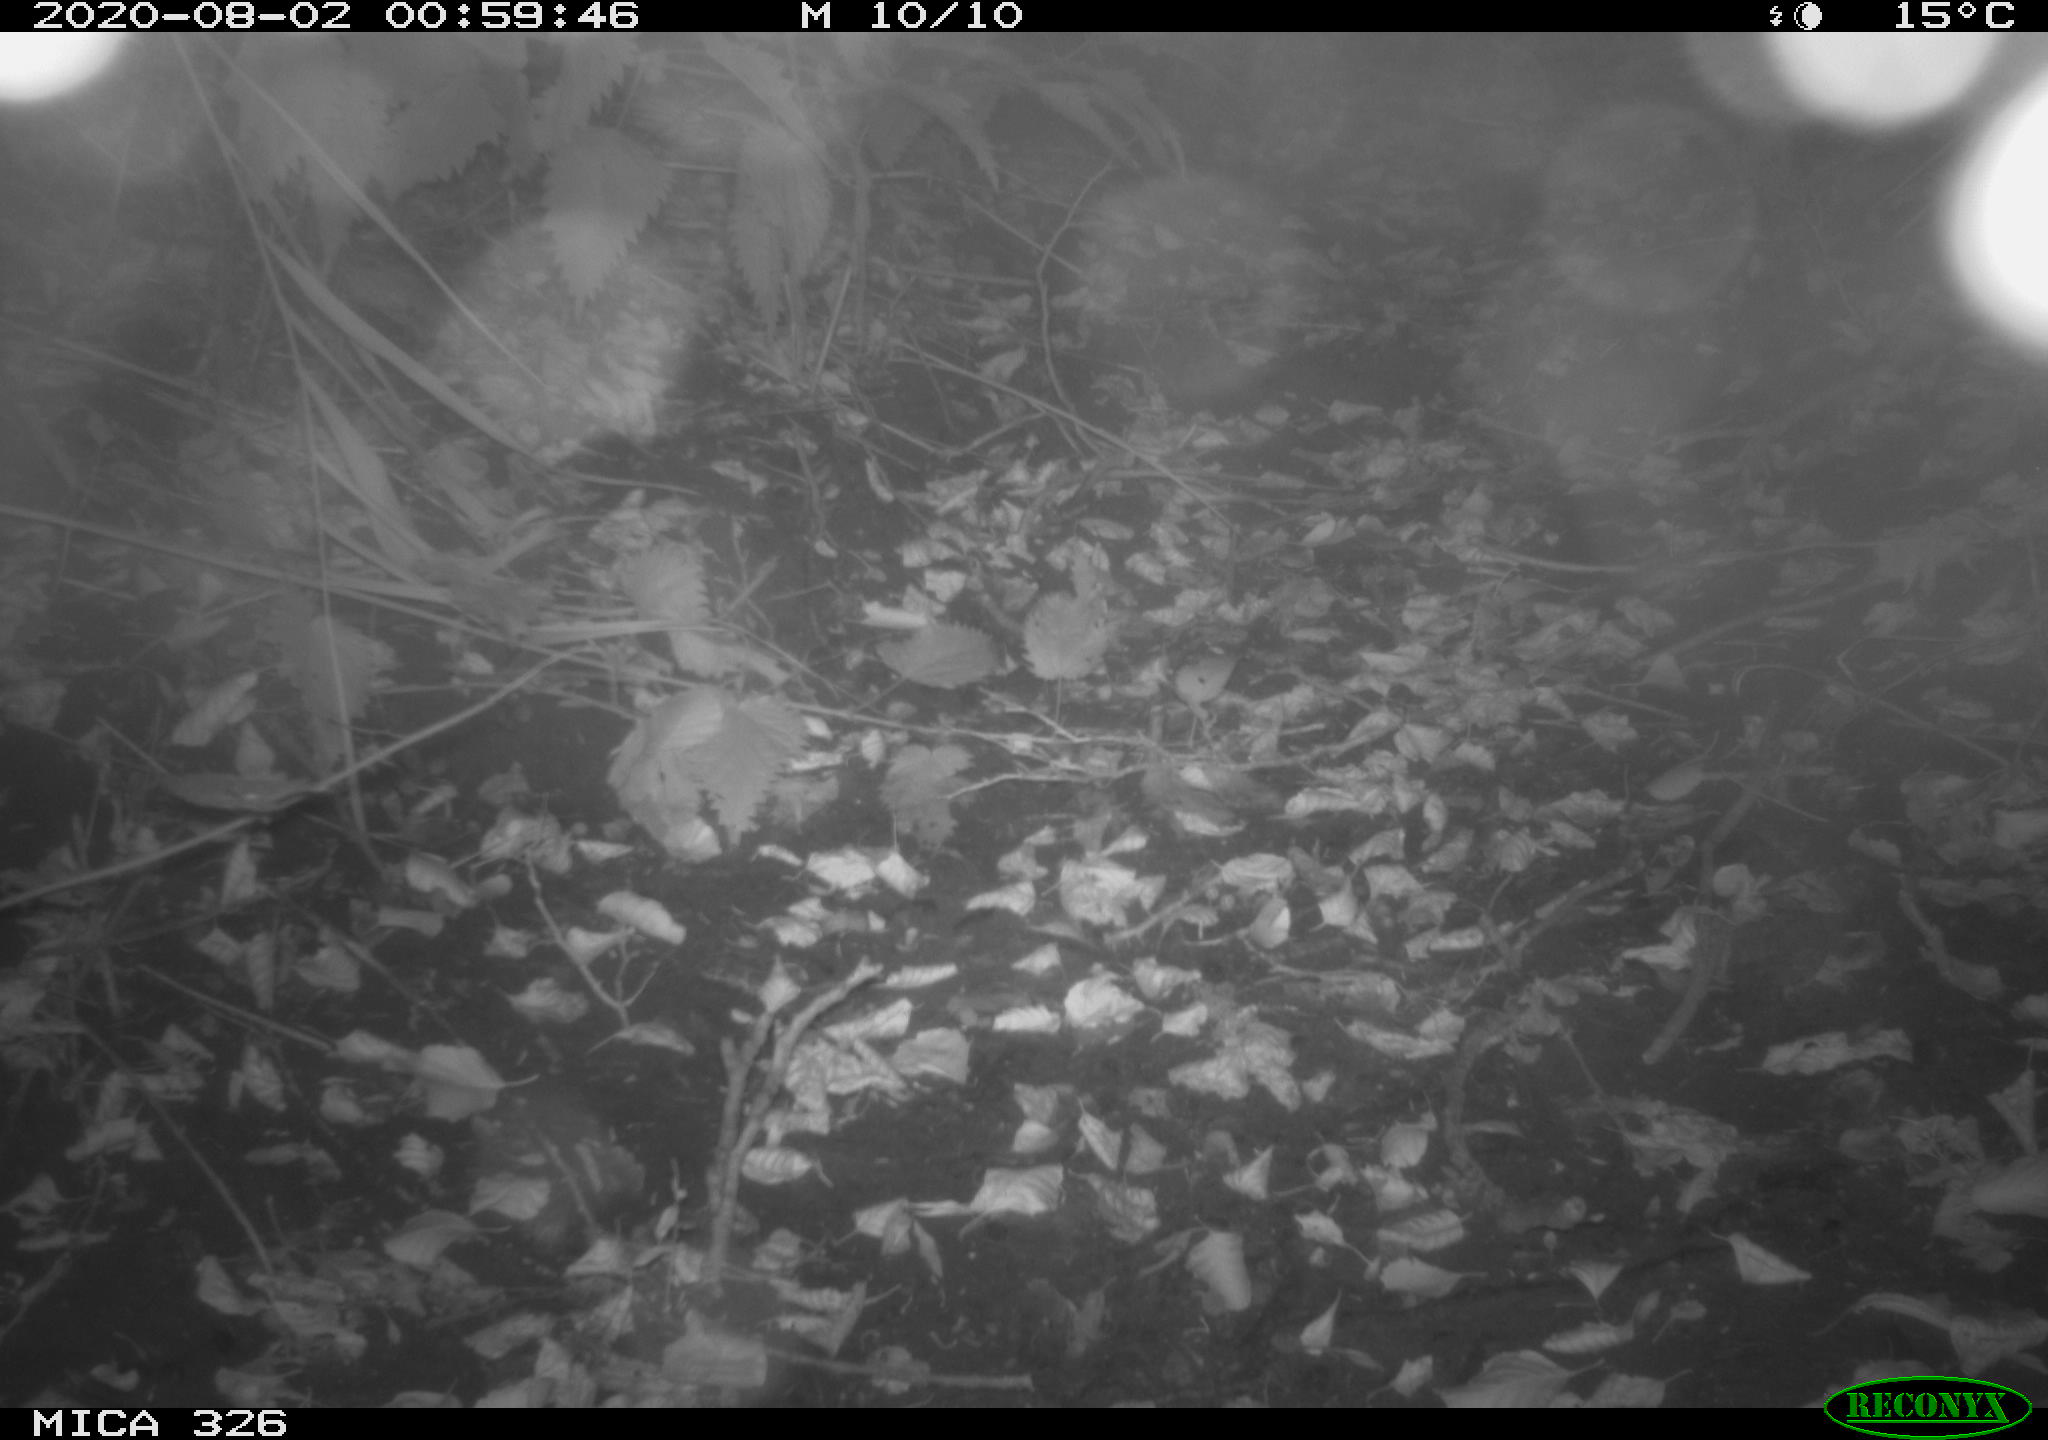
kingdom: Animalia
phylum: Chordata
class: Mammalia
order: Carnivora
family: Mustelidae
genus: Martes
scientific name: Martes foina
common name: Beech marten
